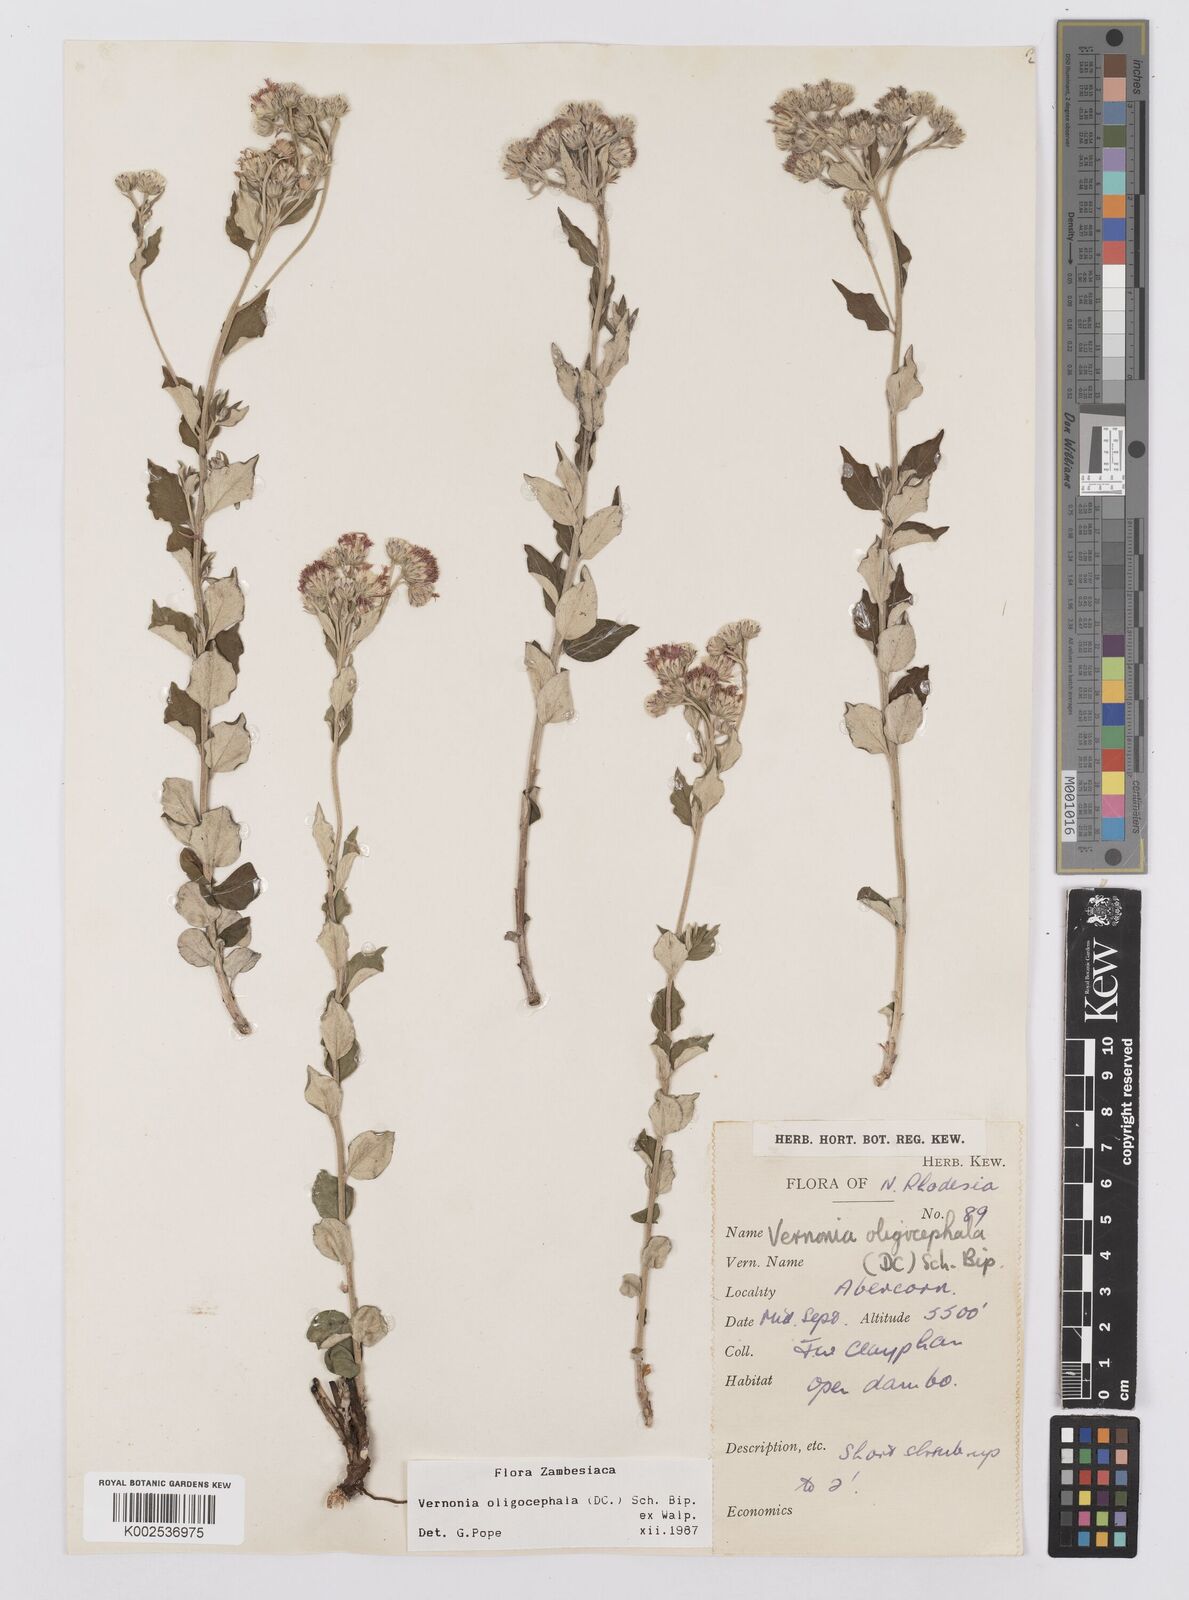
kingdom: Plantae
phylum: Tracheophyta
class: Magnoliopsida
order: Asterales
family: Asteraceae
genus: Hilliardiella
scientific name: Hilliardiella oligocephala
